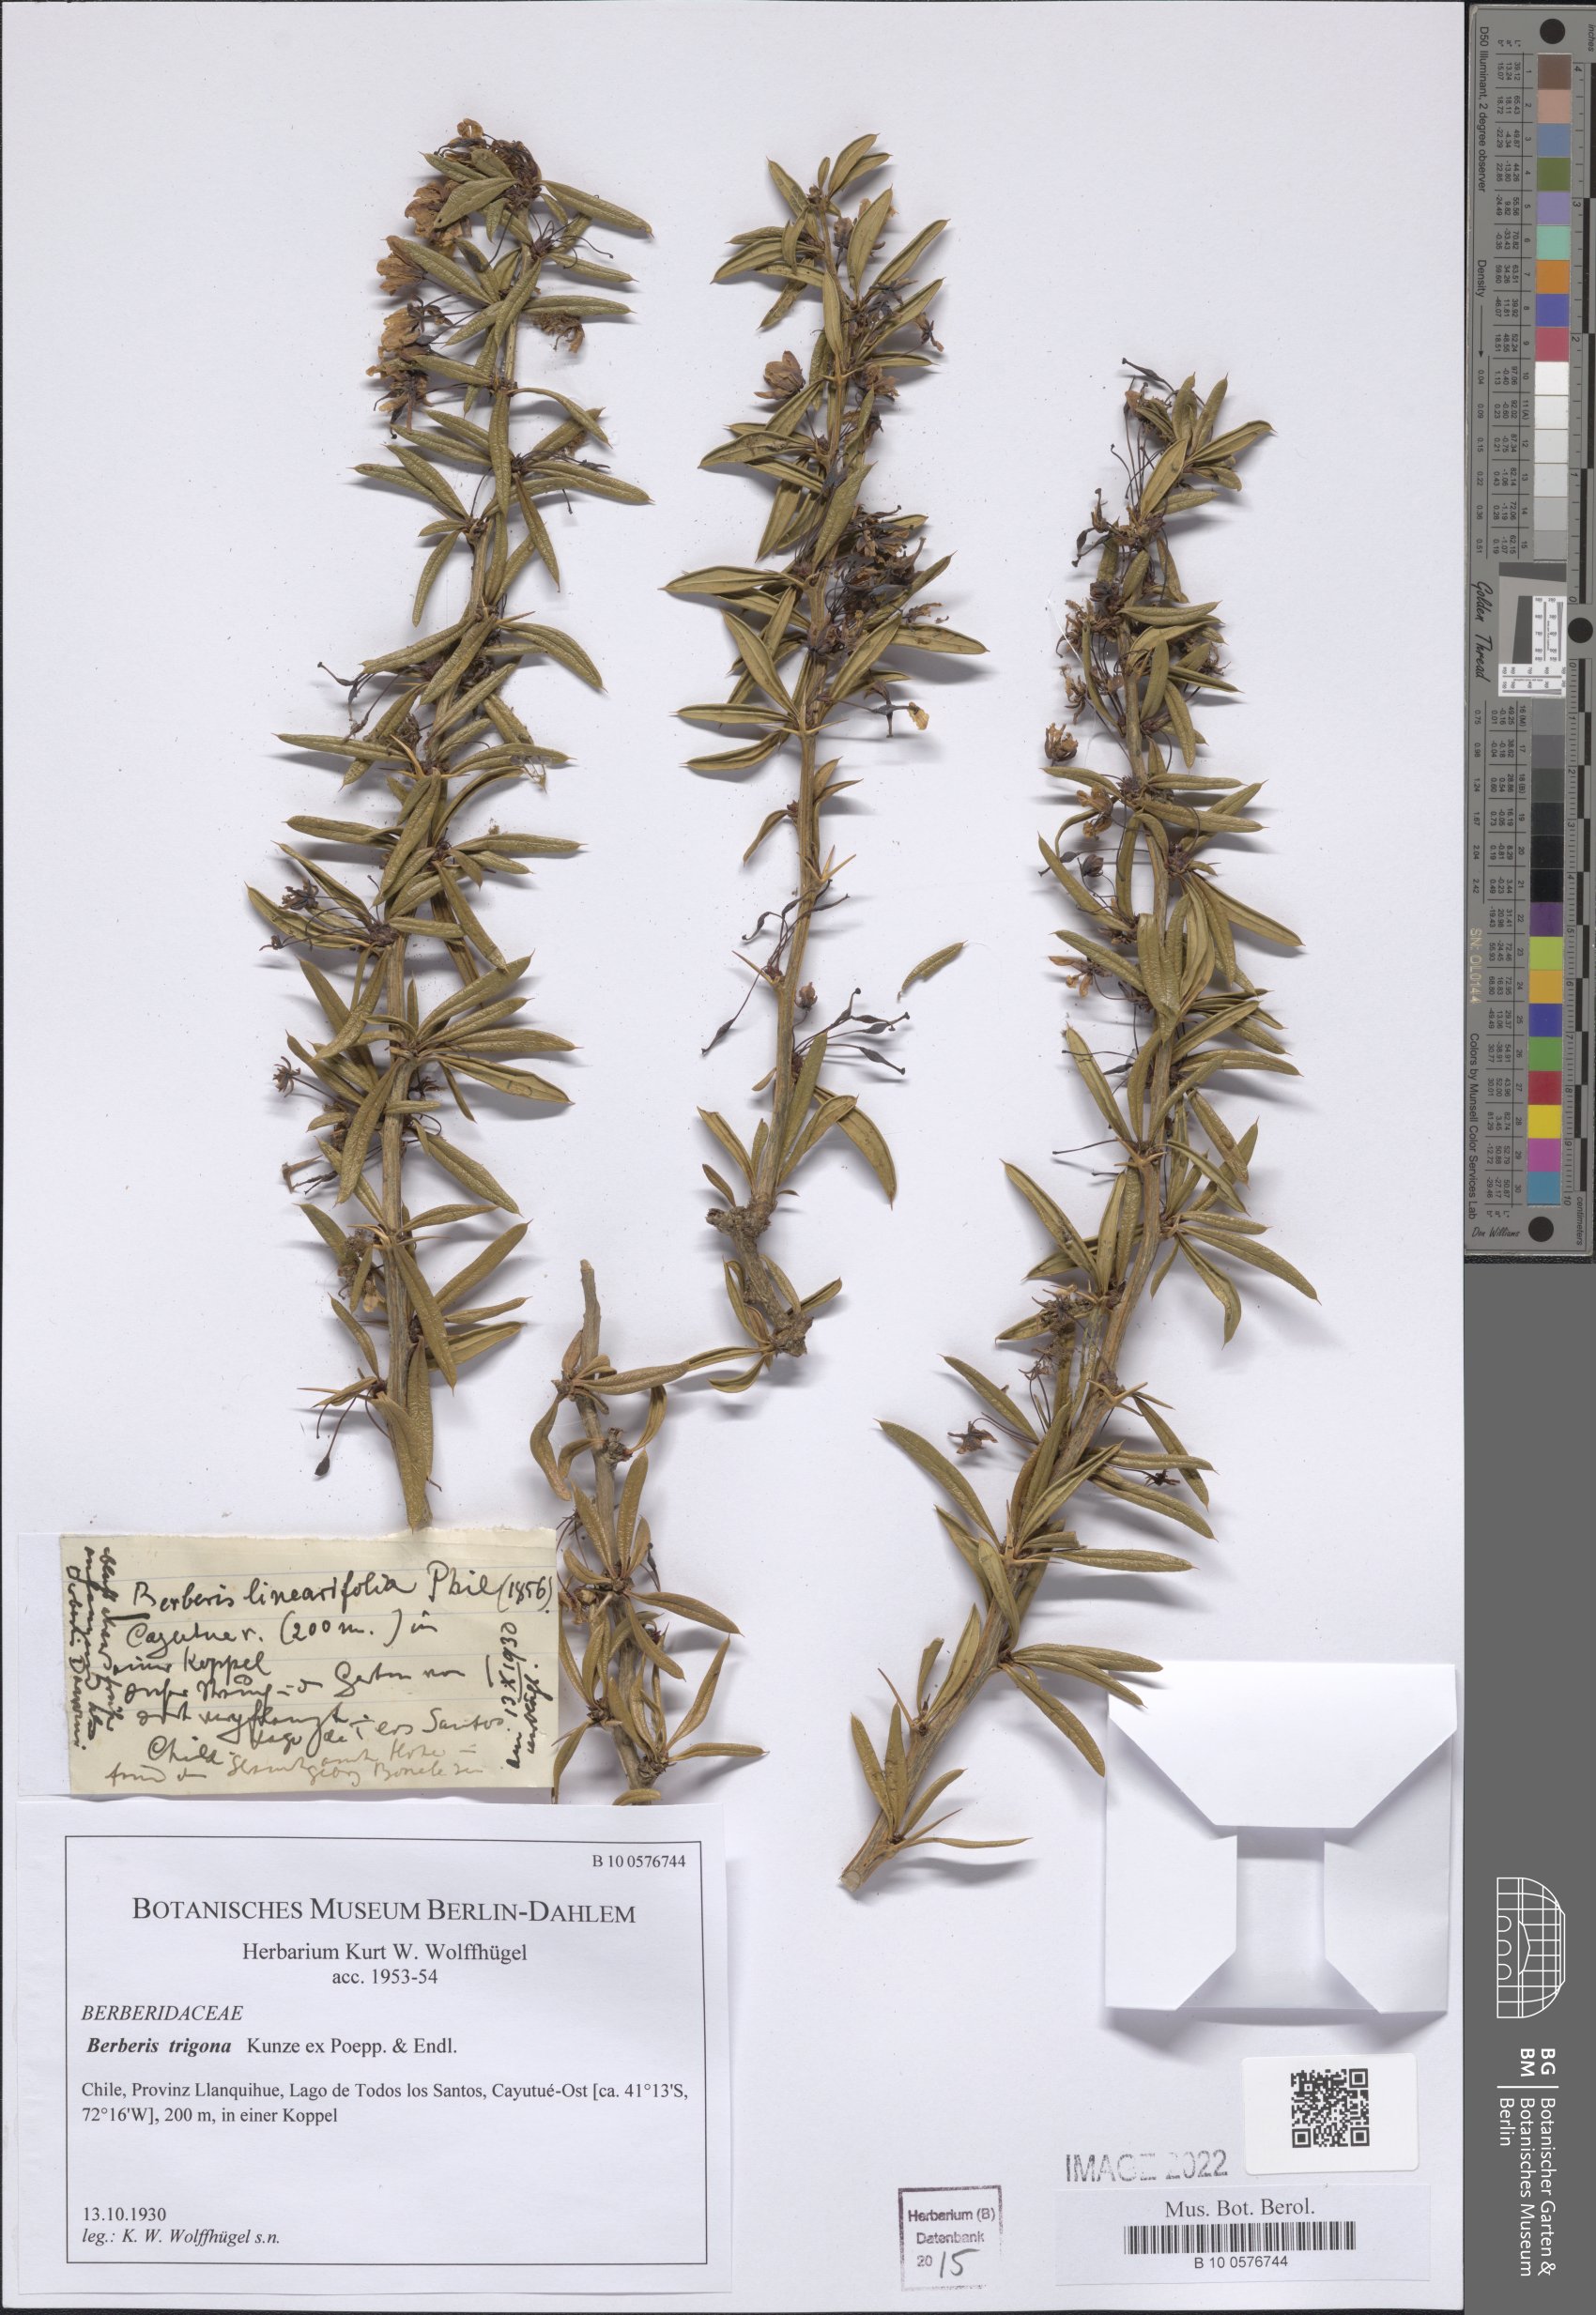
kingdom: Plantae
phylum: Tracheophyta
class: Magnoliopsida
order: Ranunculales
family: Berberidaceae
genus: Berberis
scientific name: Berberis trigona
